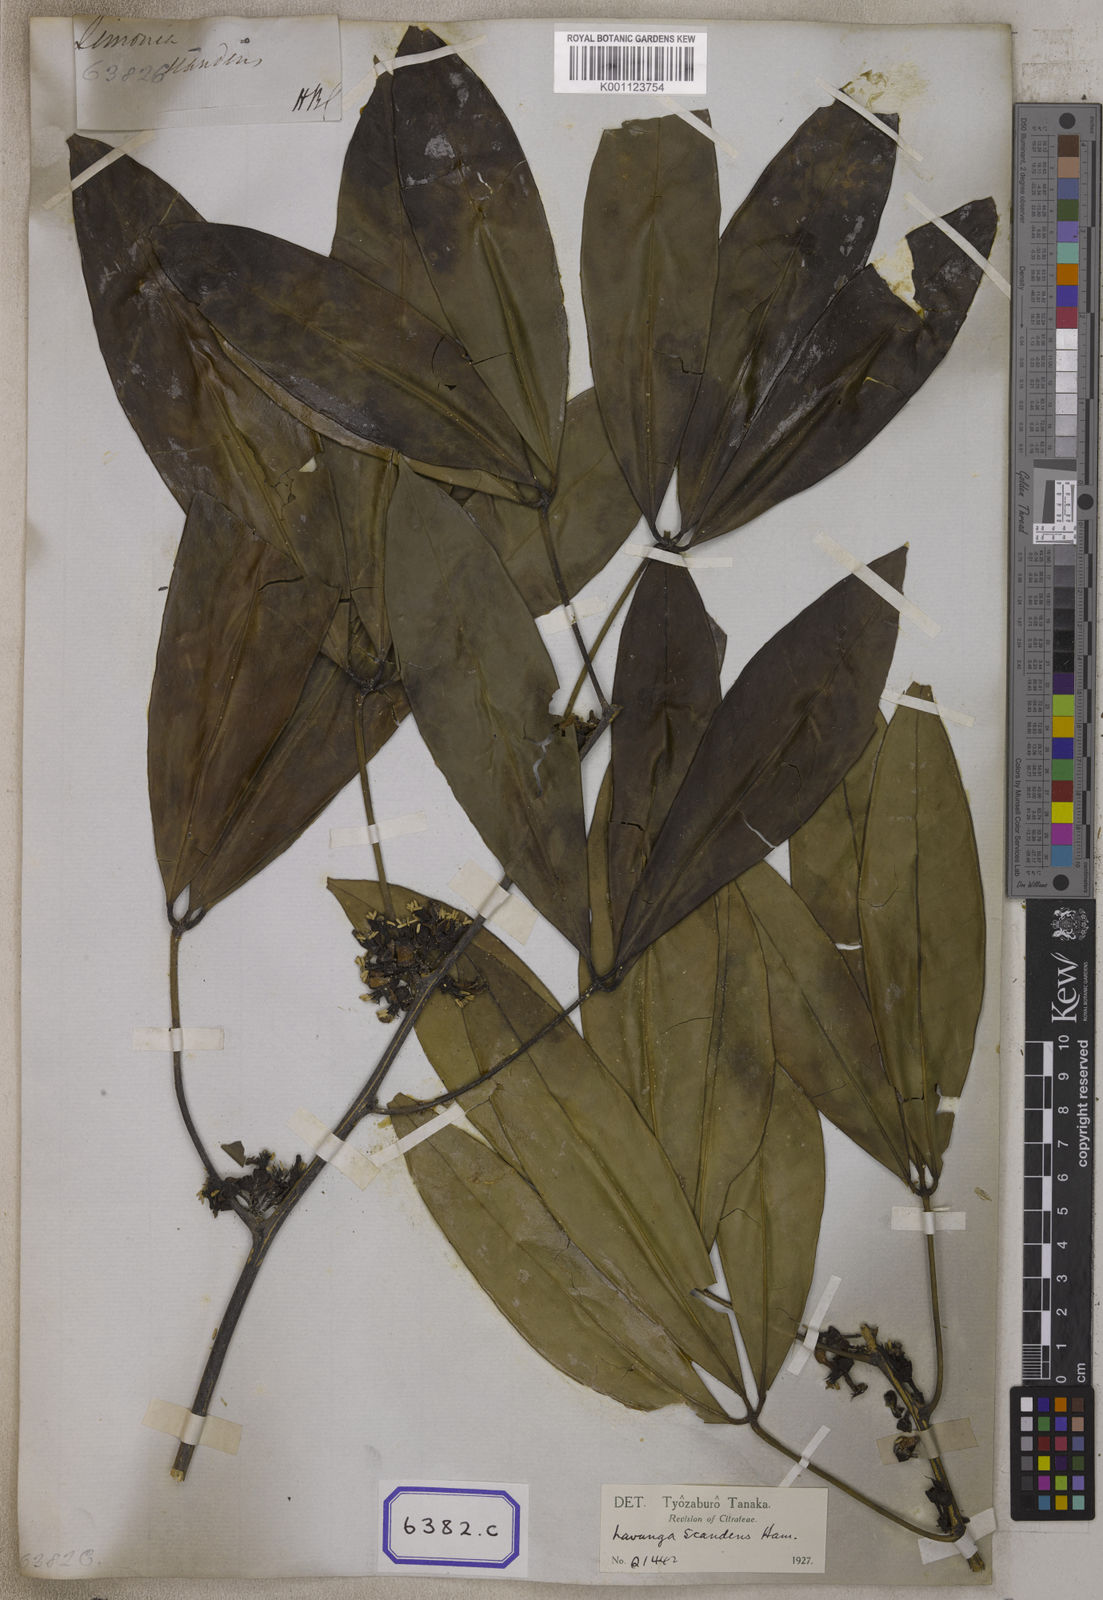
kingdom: Plantae
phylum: Tracheophyta
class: Magnoliopsida
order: Sapindales
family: Rutaceae
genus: Luvunga
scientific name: Luvunga scandens
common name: Indian luvunga
